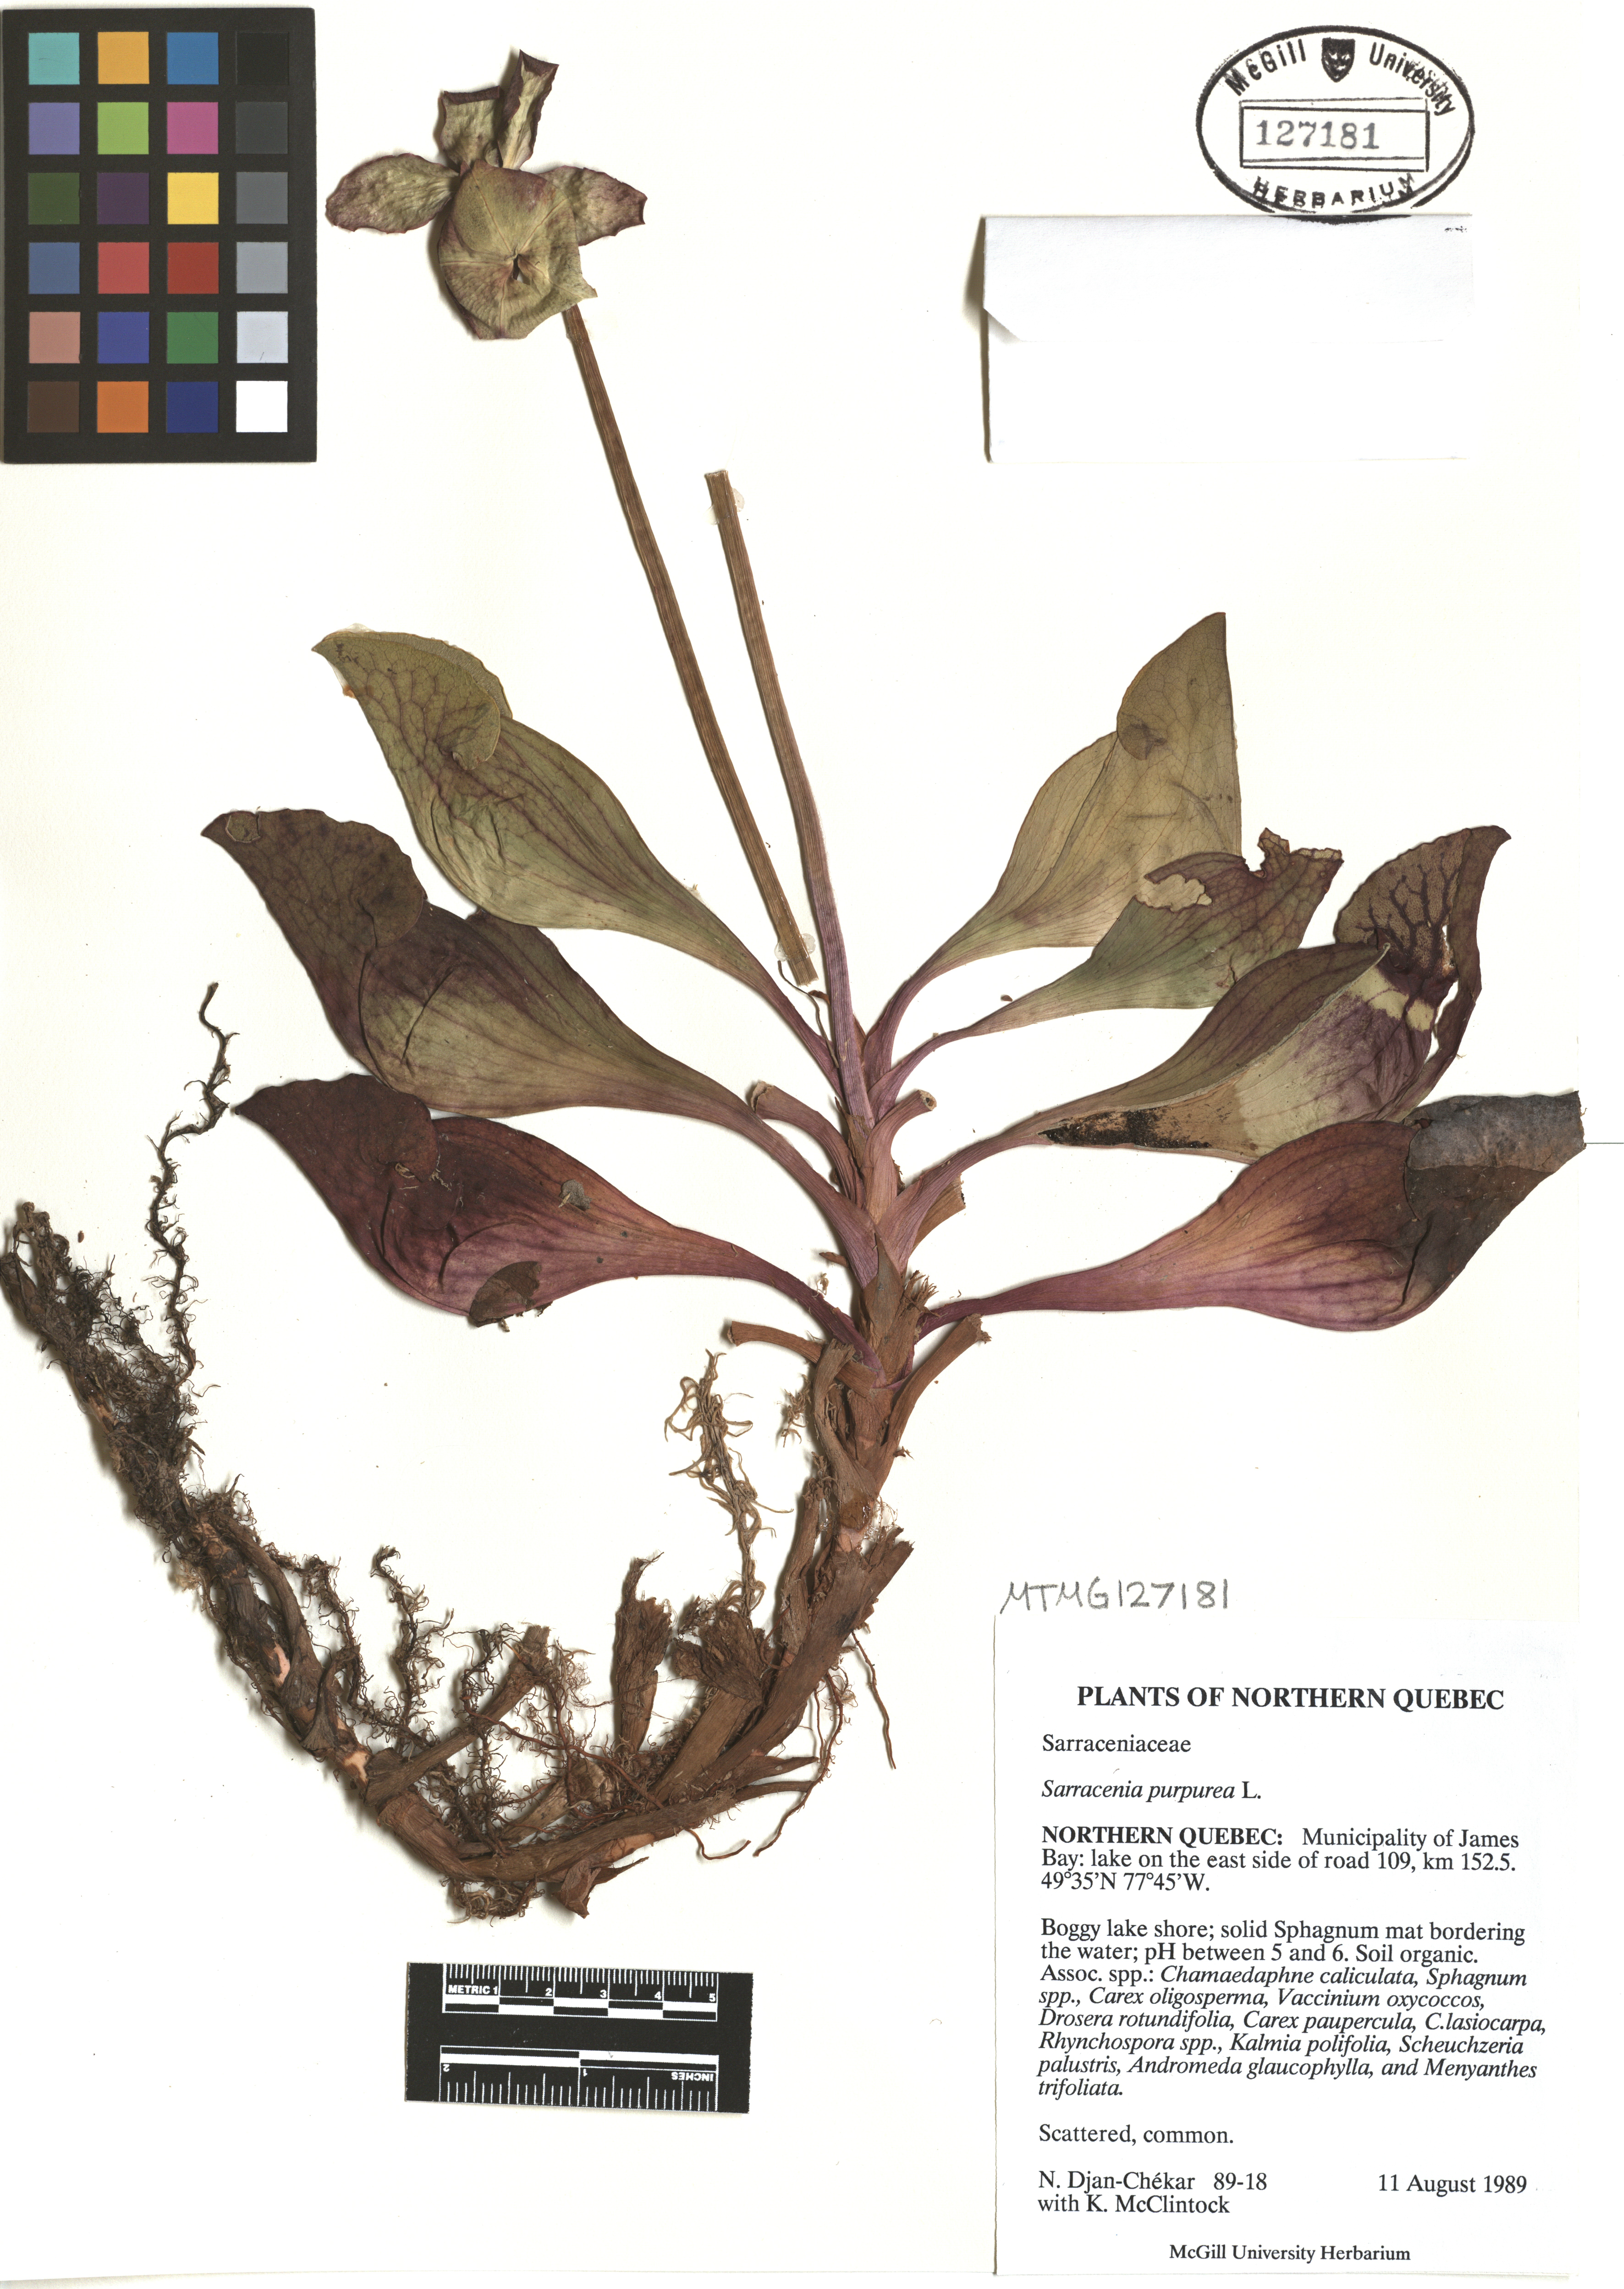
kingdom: Plantae
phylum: Tracheophyta
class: Magnoliopsida
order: Ericales
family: Sarraceniaceae
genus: Sarracenia
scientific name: Sarracenia purpurea
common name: Pitcherplant
